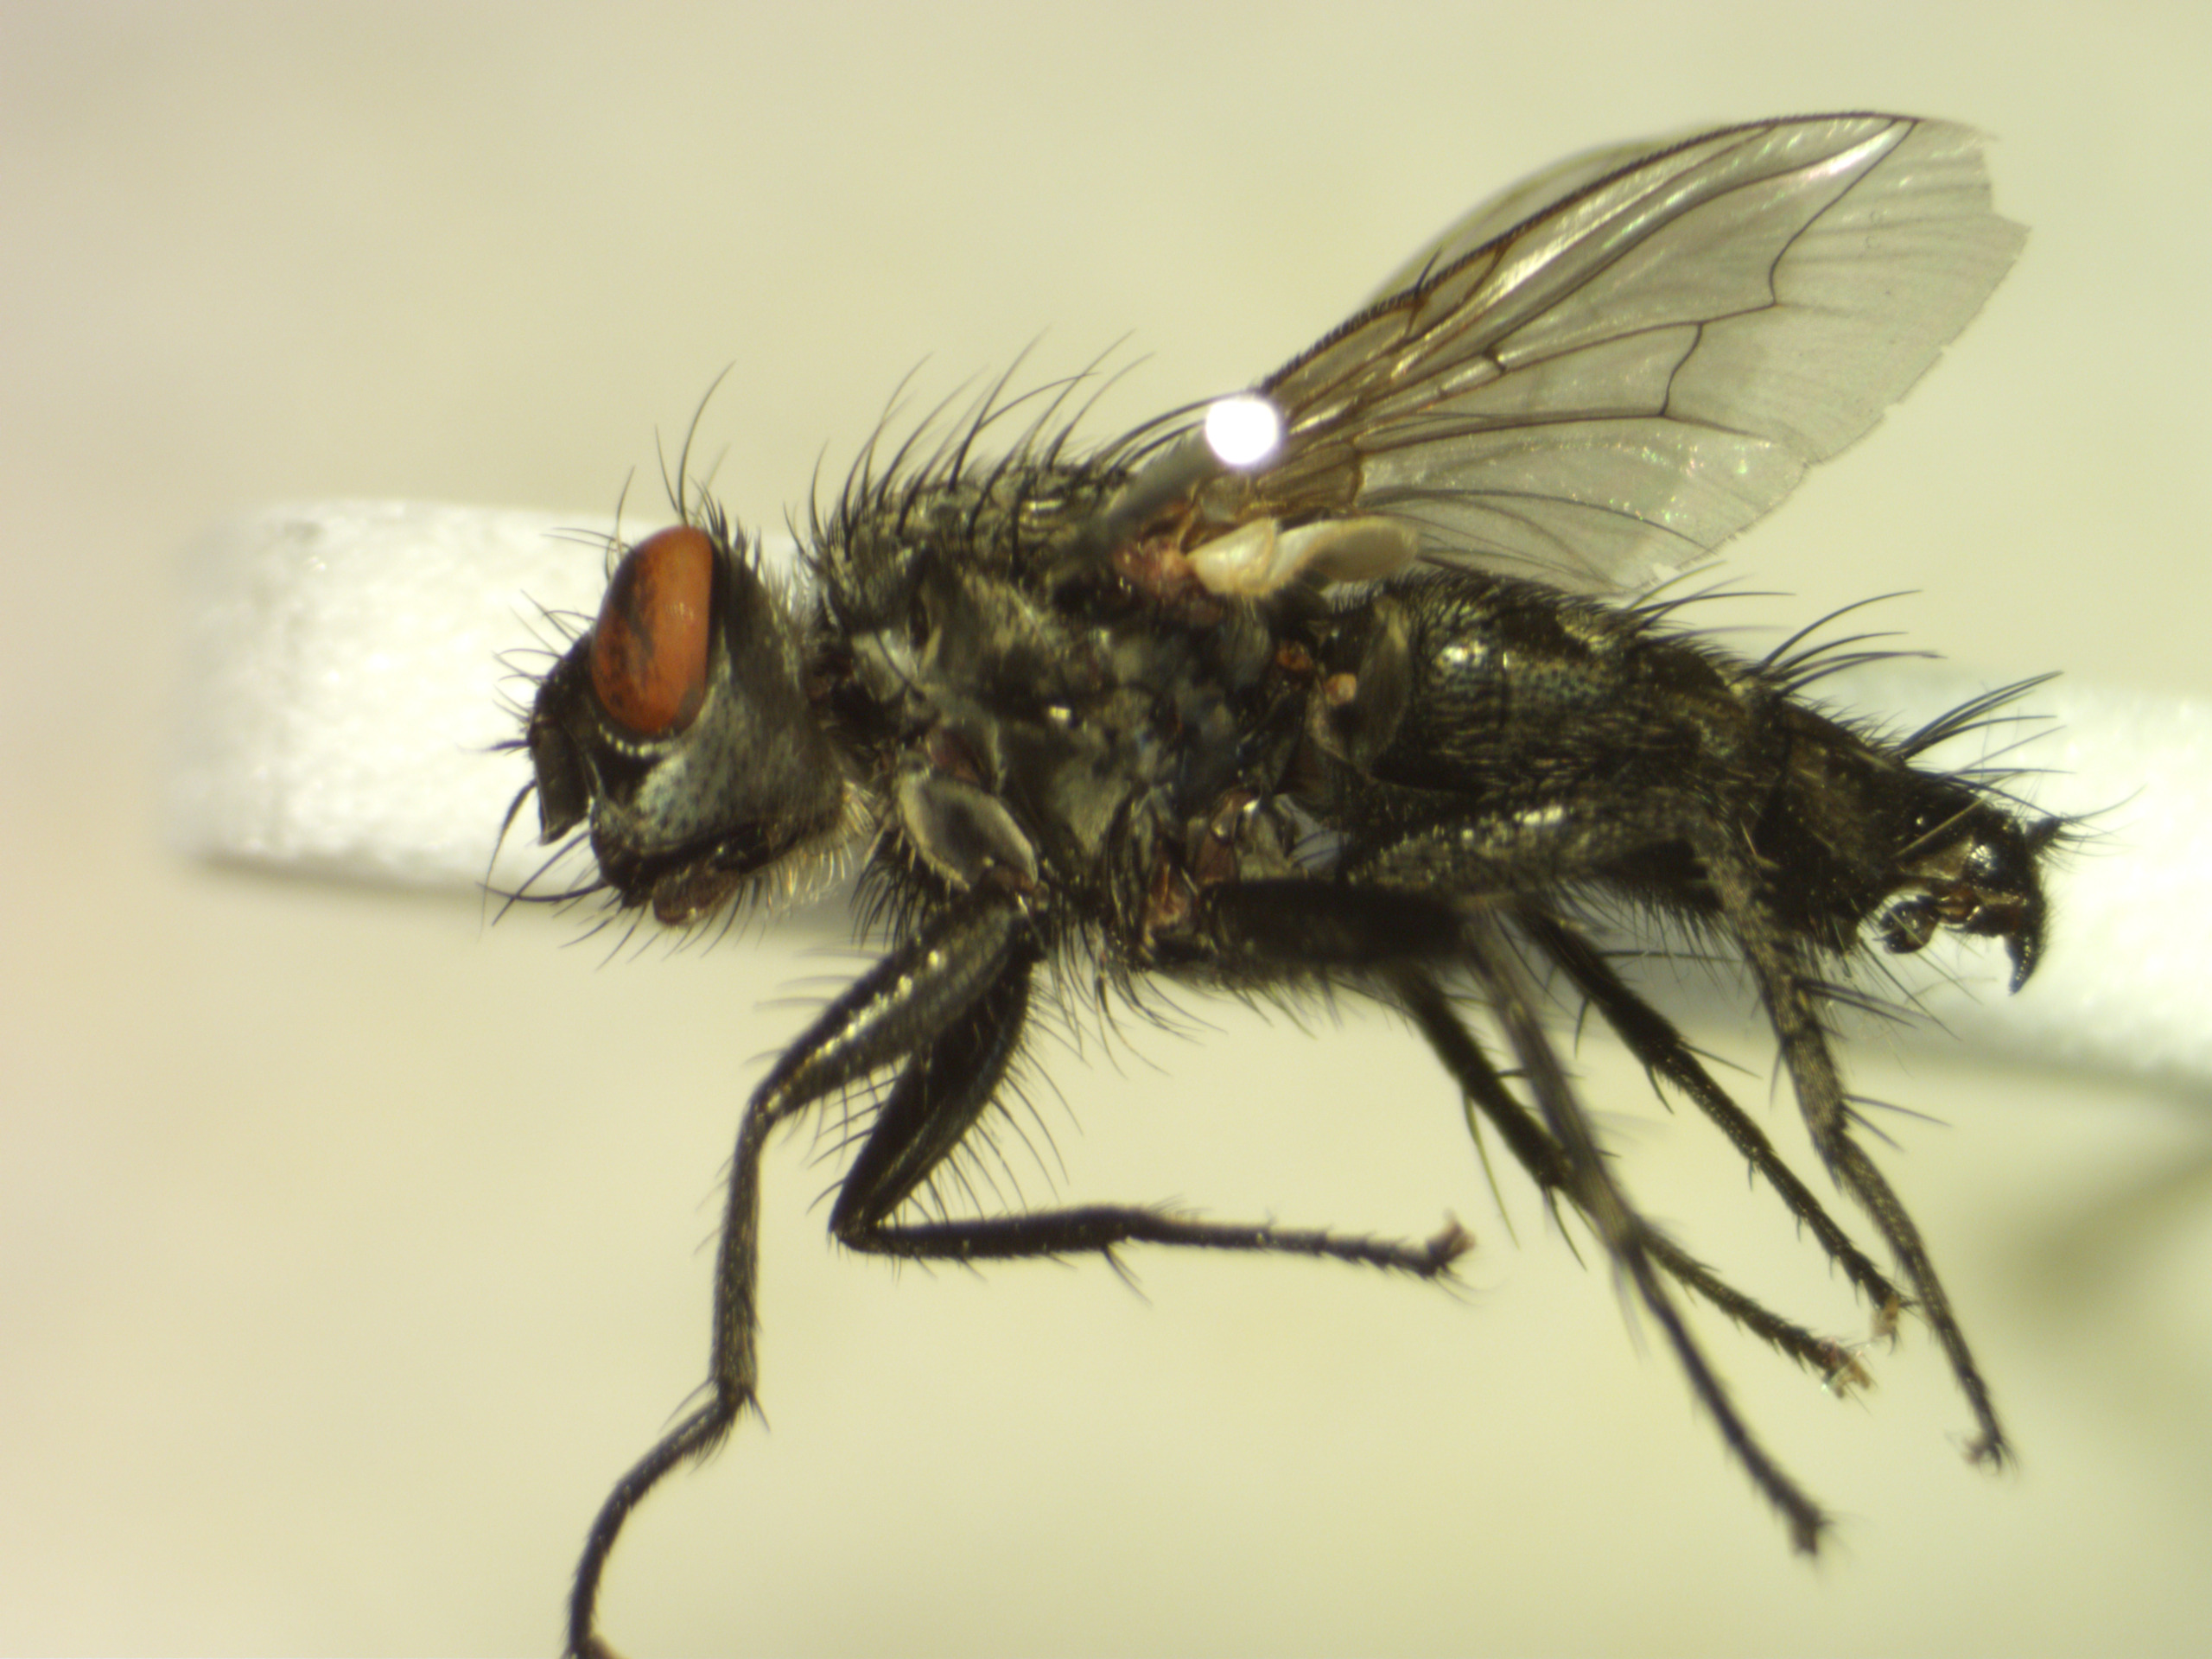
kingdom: Animalia
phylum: Arthropoda
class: Insecta
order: Diptera
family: Sarcophagidae
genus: Sarcophaga
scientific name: Sarcophaga nigriventris
